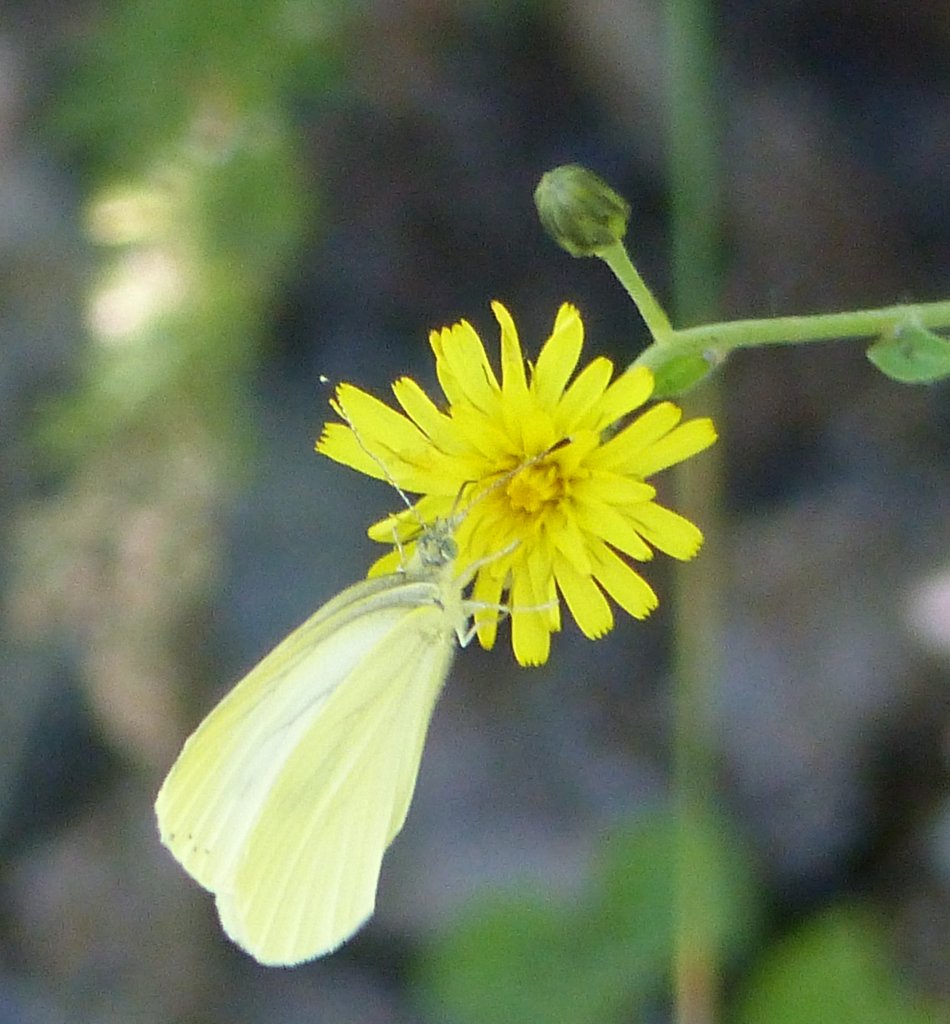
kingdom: Animalia
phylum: Arthropoda
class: Insecta
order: Lepidoptera
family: Pieridae
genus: Pieris
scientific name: Pieris rapae
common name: Cabbage White
